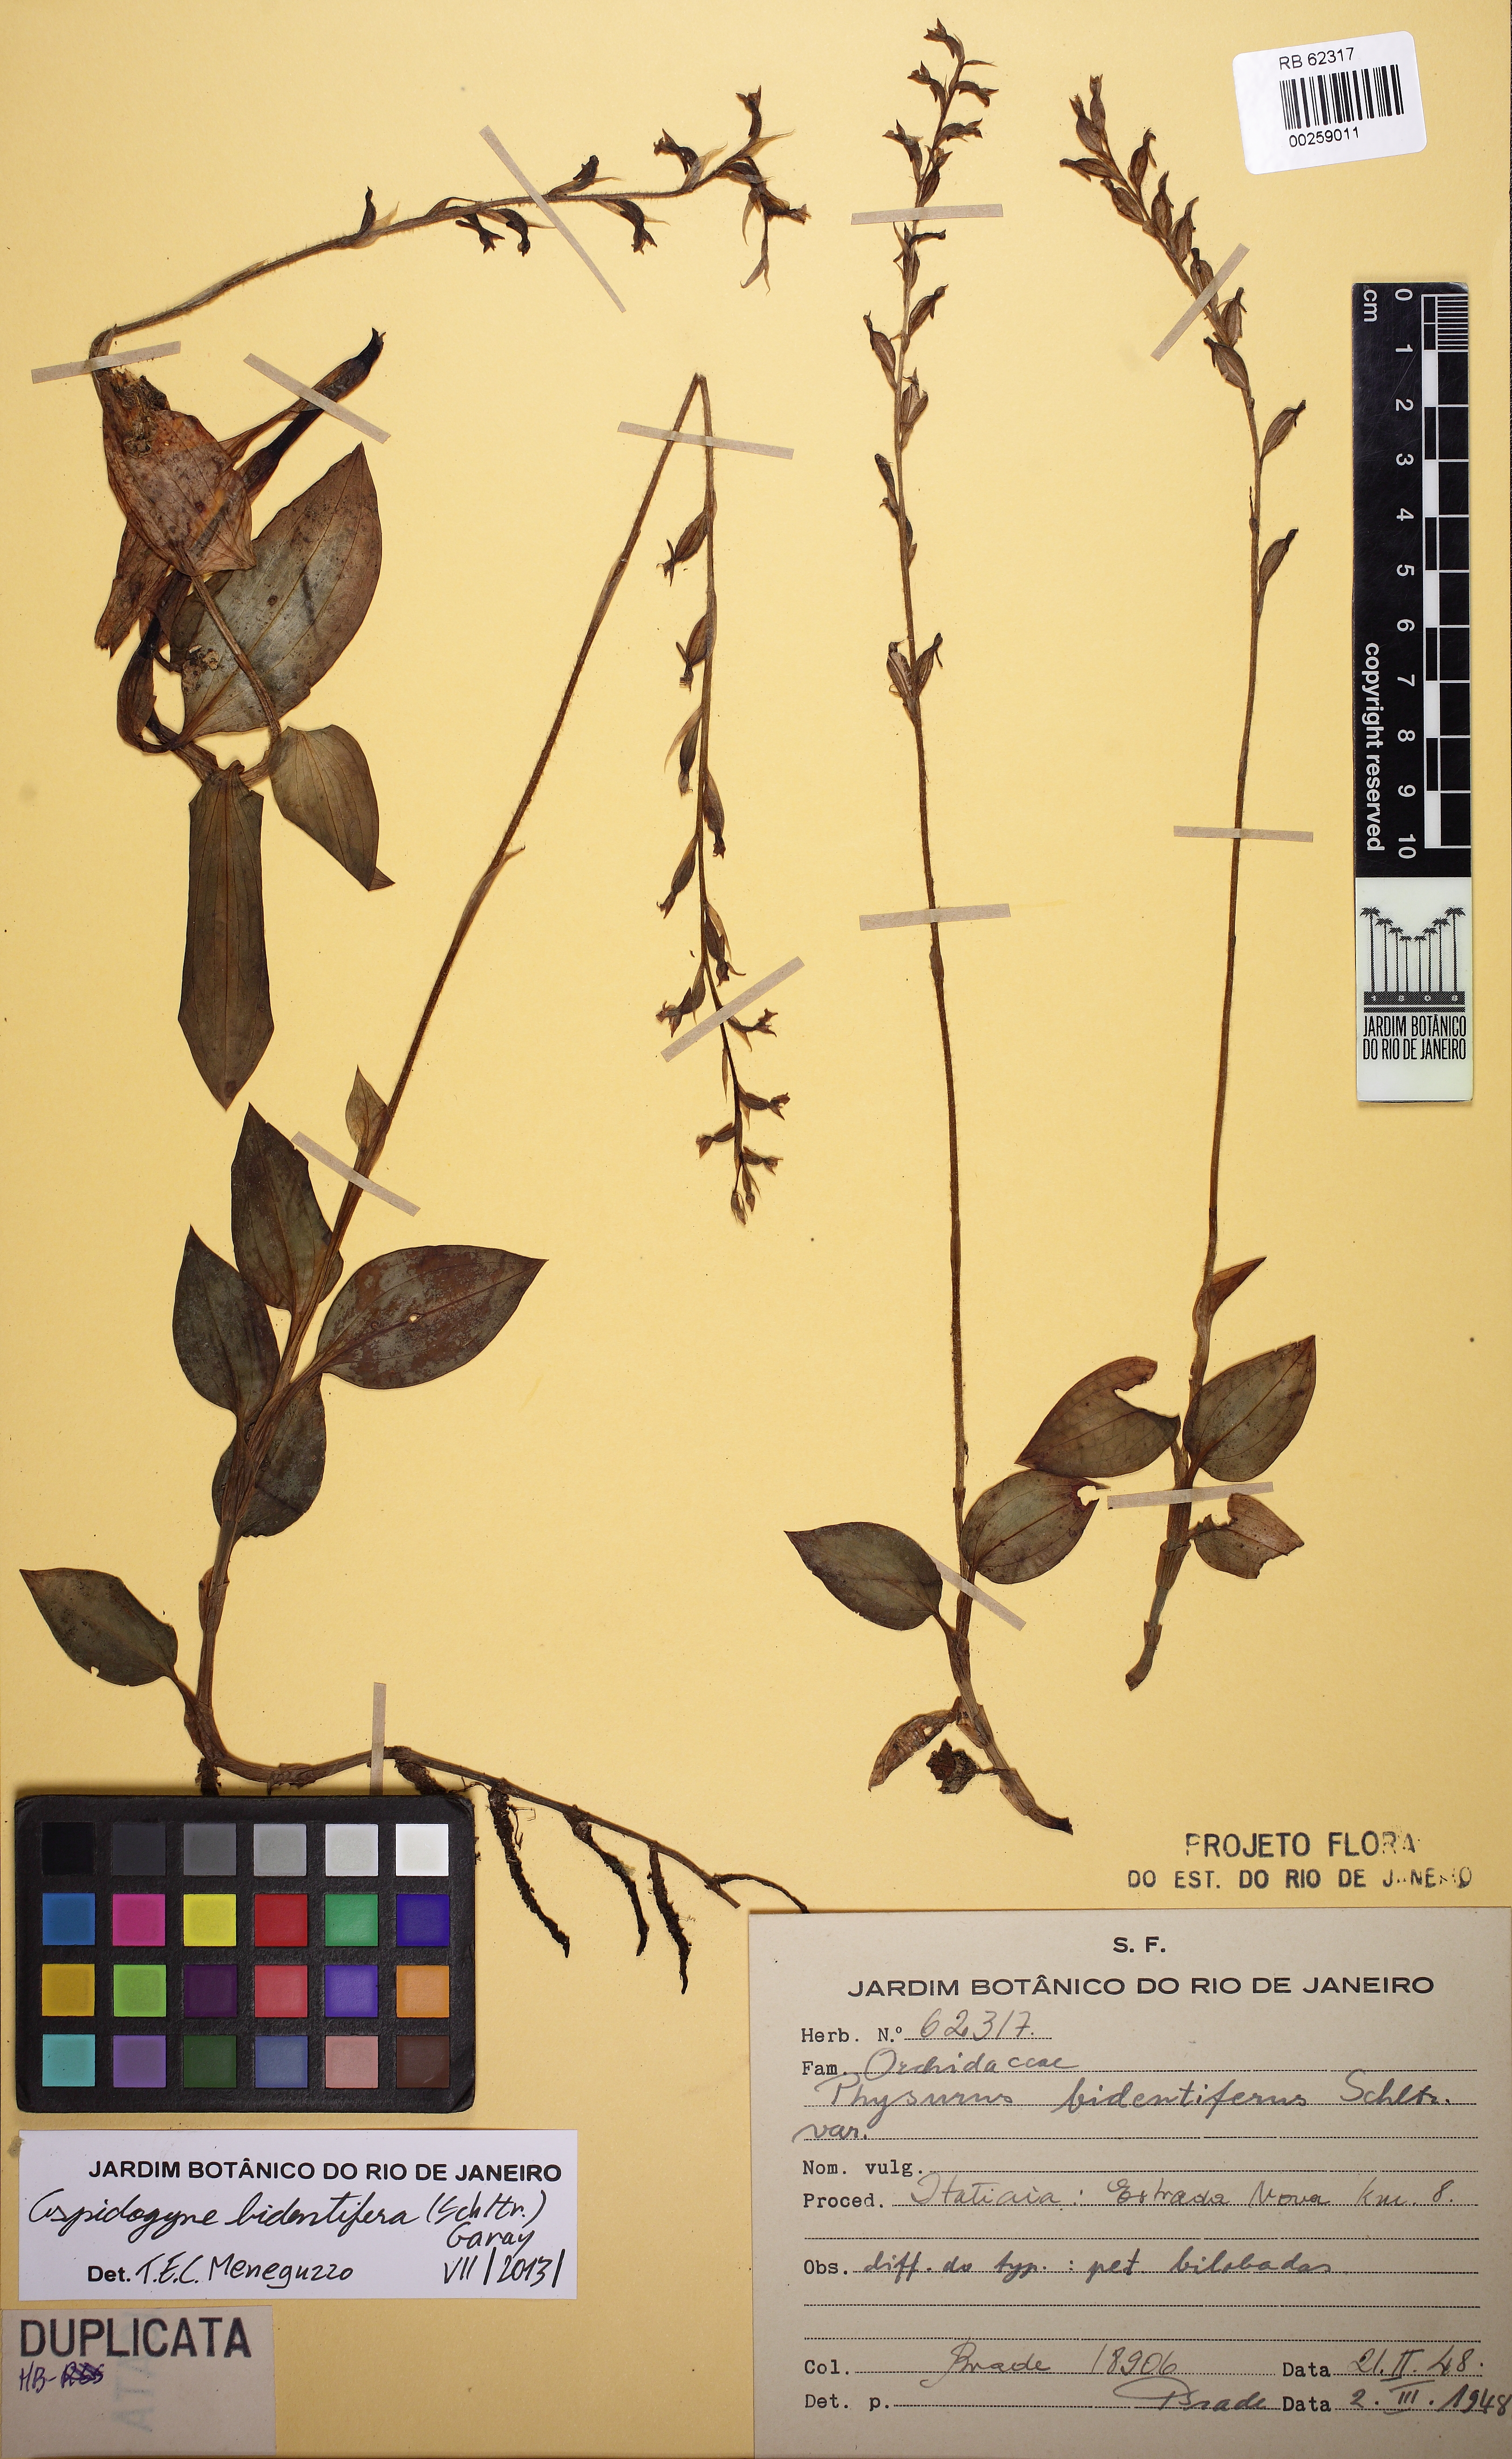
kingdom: Plantae
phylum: Tracheophyta
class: Liliopsida
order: Asparagales
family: Orchidaceae
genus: Aspidogyne
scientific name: Aspidogyne bidentifera
